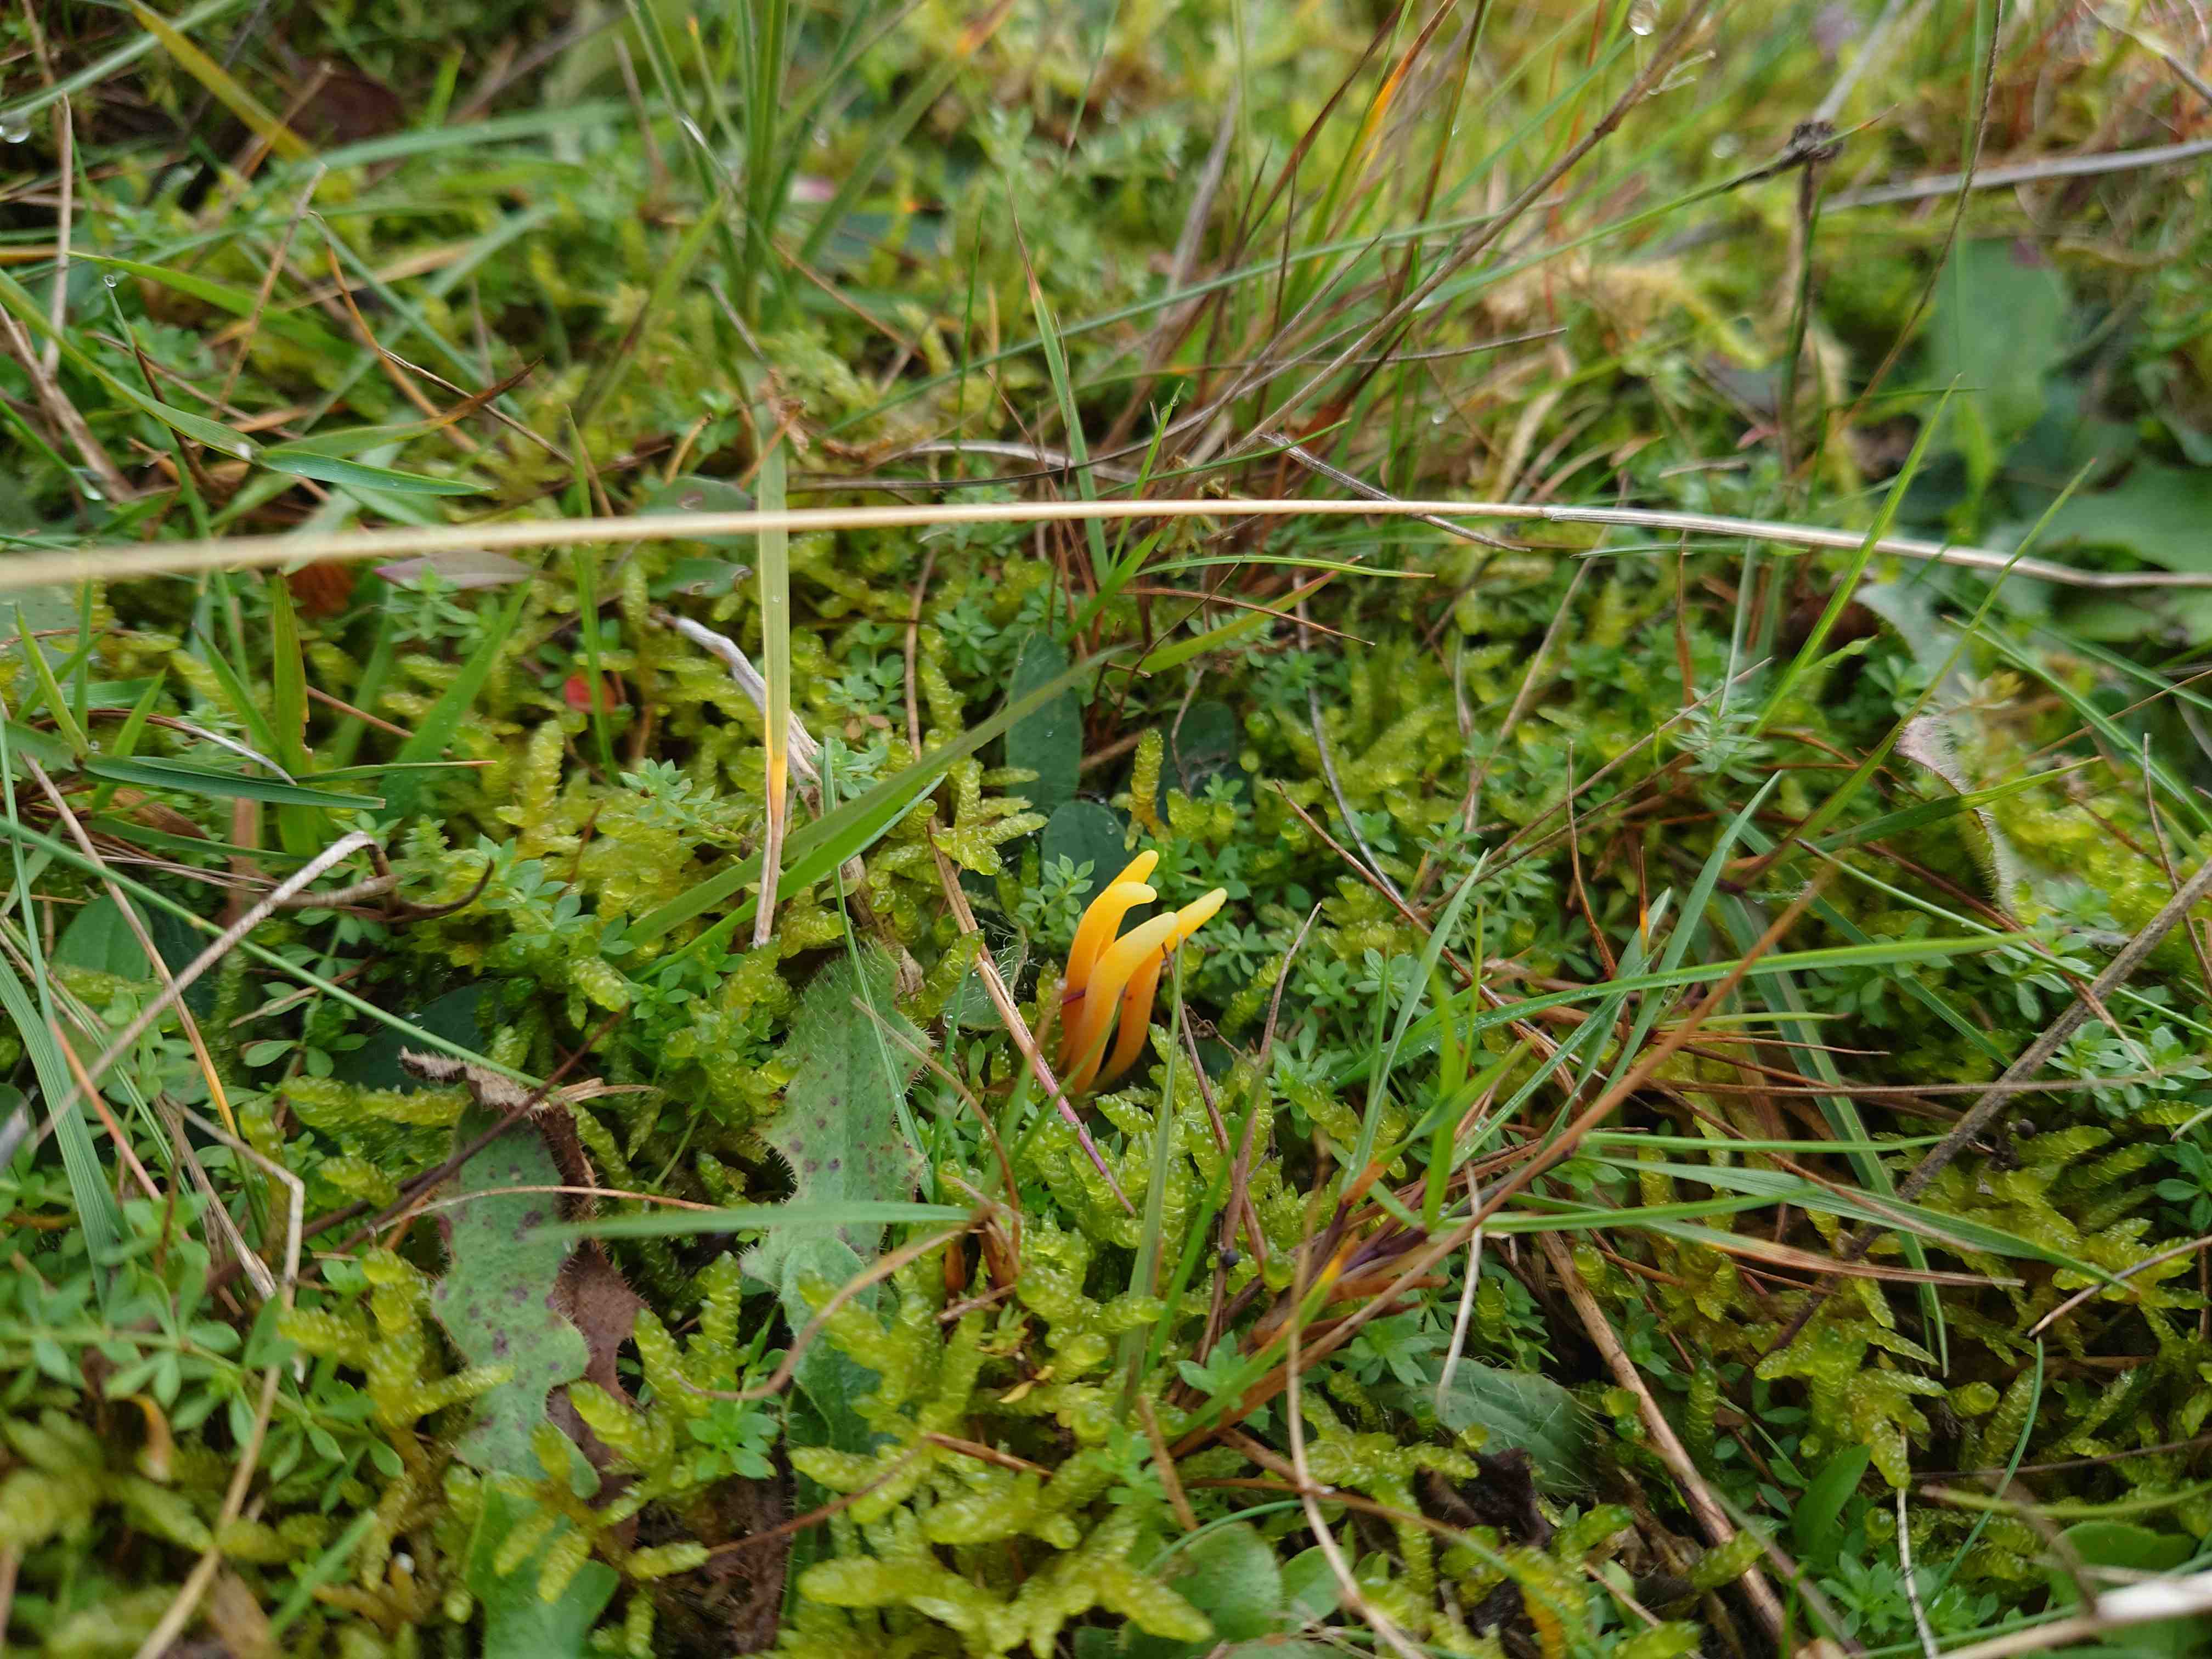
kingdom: Fungi
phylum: Basidiomycota
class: Agaricomycetes
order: Agaricales
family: Clavariaceae
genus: Clavulinopsis
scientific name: Clavulinopsis
